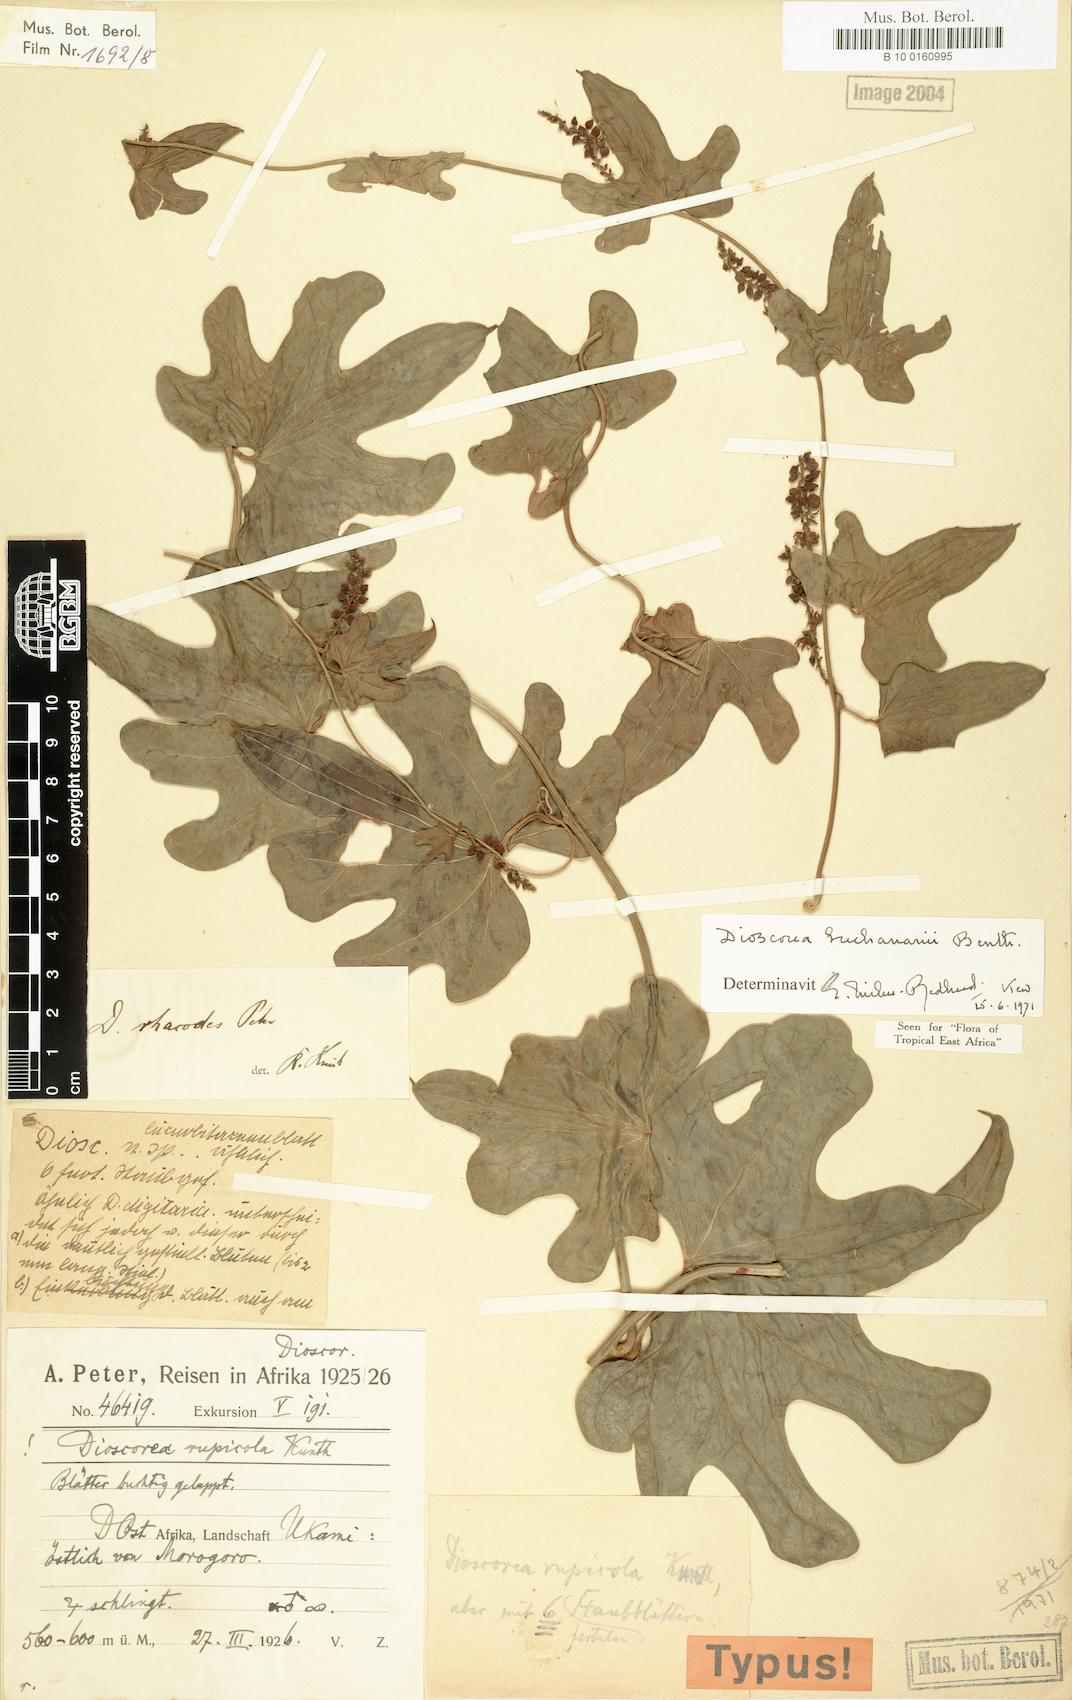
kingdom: Plantae
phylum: Tracheophyta
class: Liliopsida
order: Dioscoreales
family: Dioscoreaceae
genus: Dioscorea
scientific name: Dioscorea buchananii
